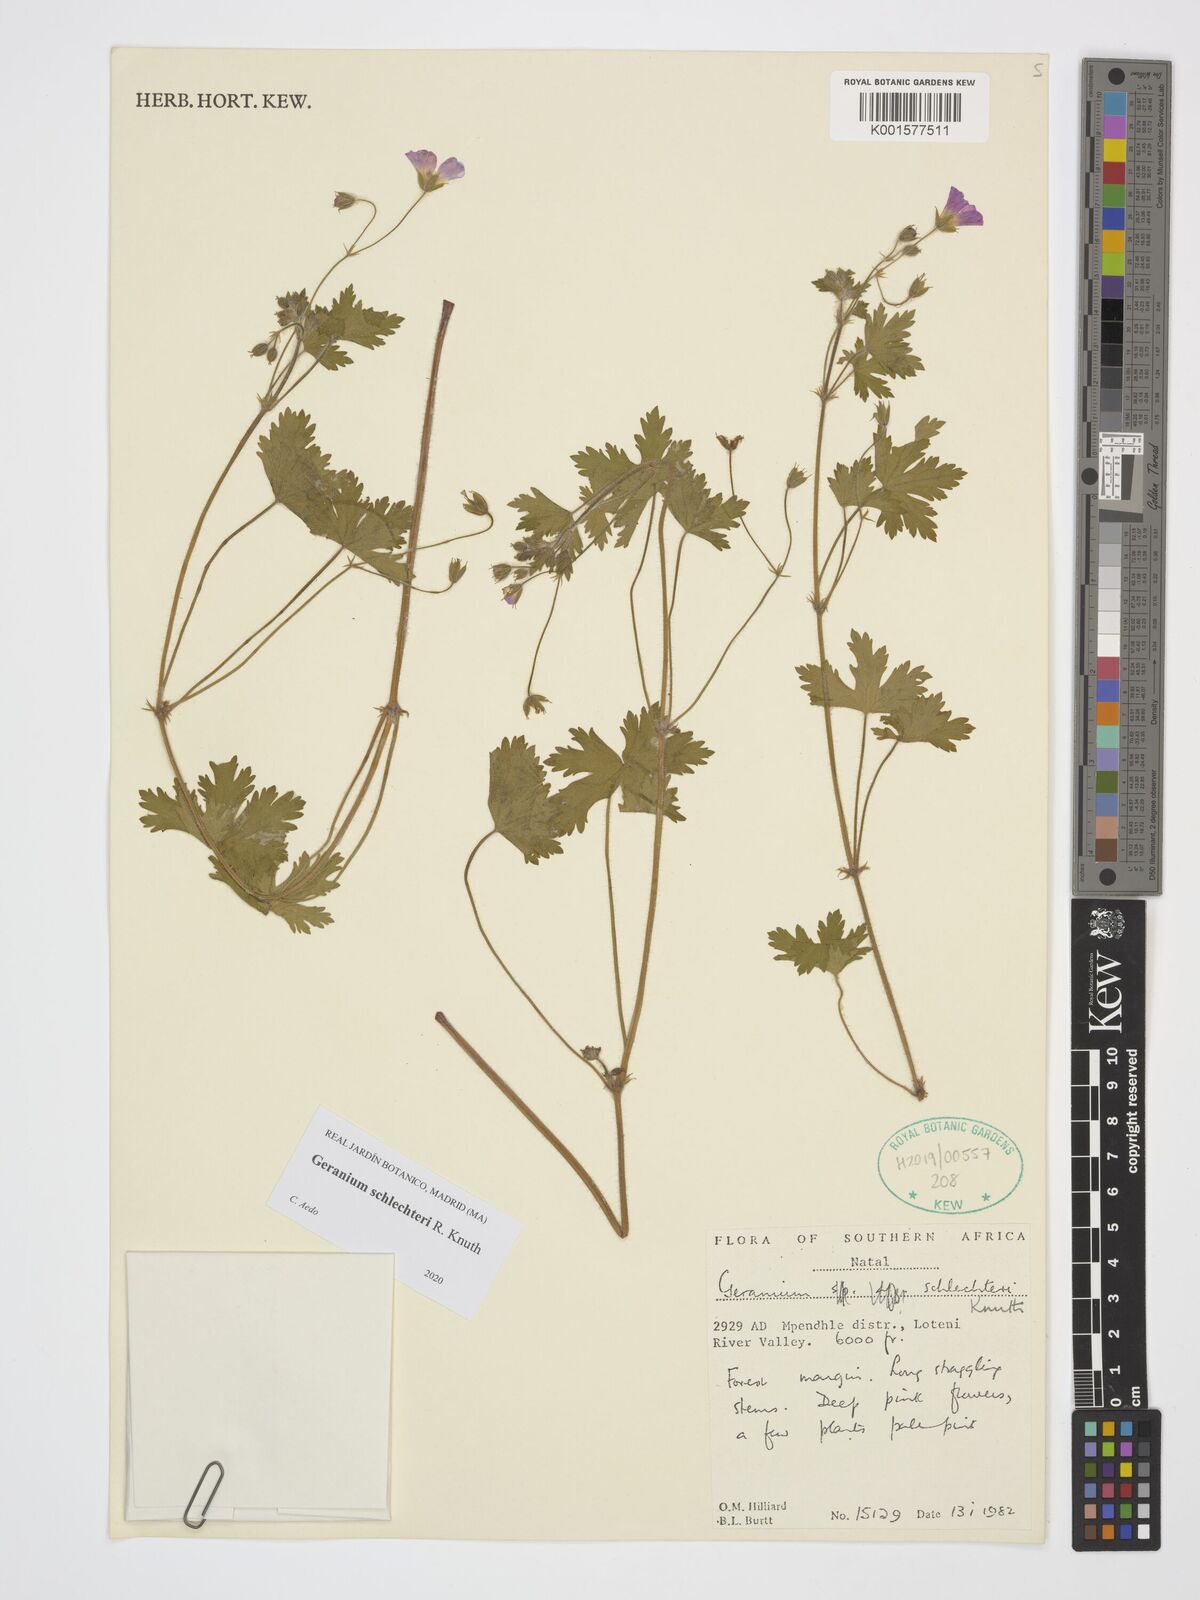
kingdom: Plantae
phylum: Tracheophyta
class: Magnoliopsida
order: Geraniales
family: Geraniaceae
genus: Geranium
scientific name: Geranium schlechteri
